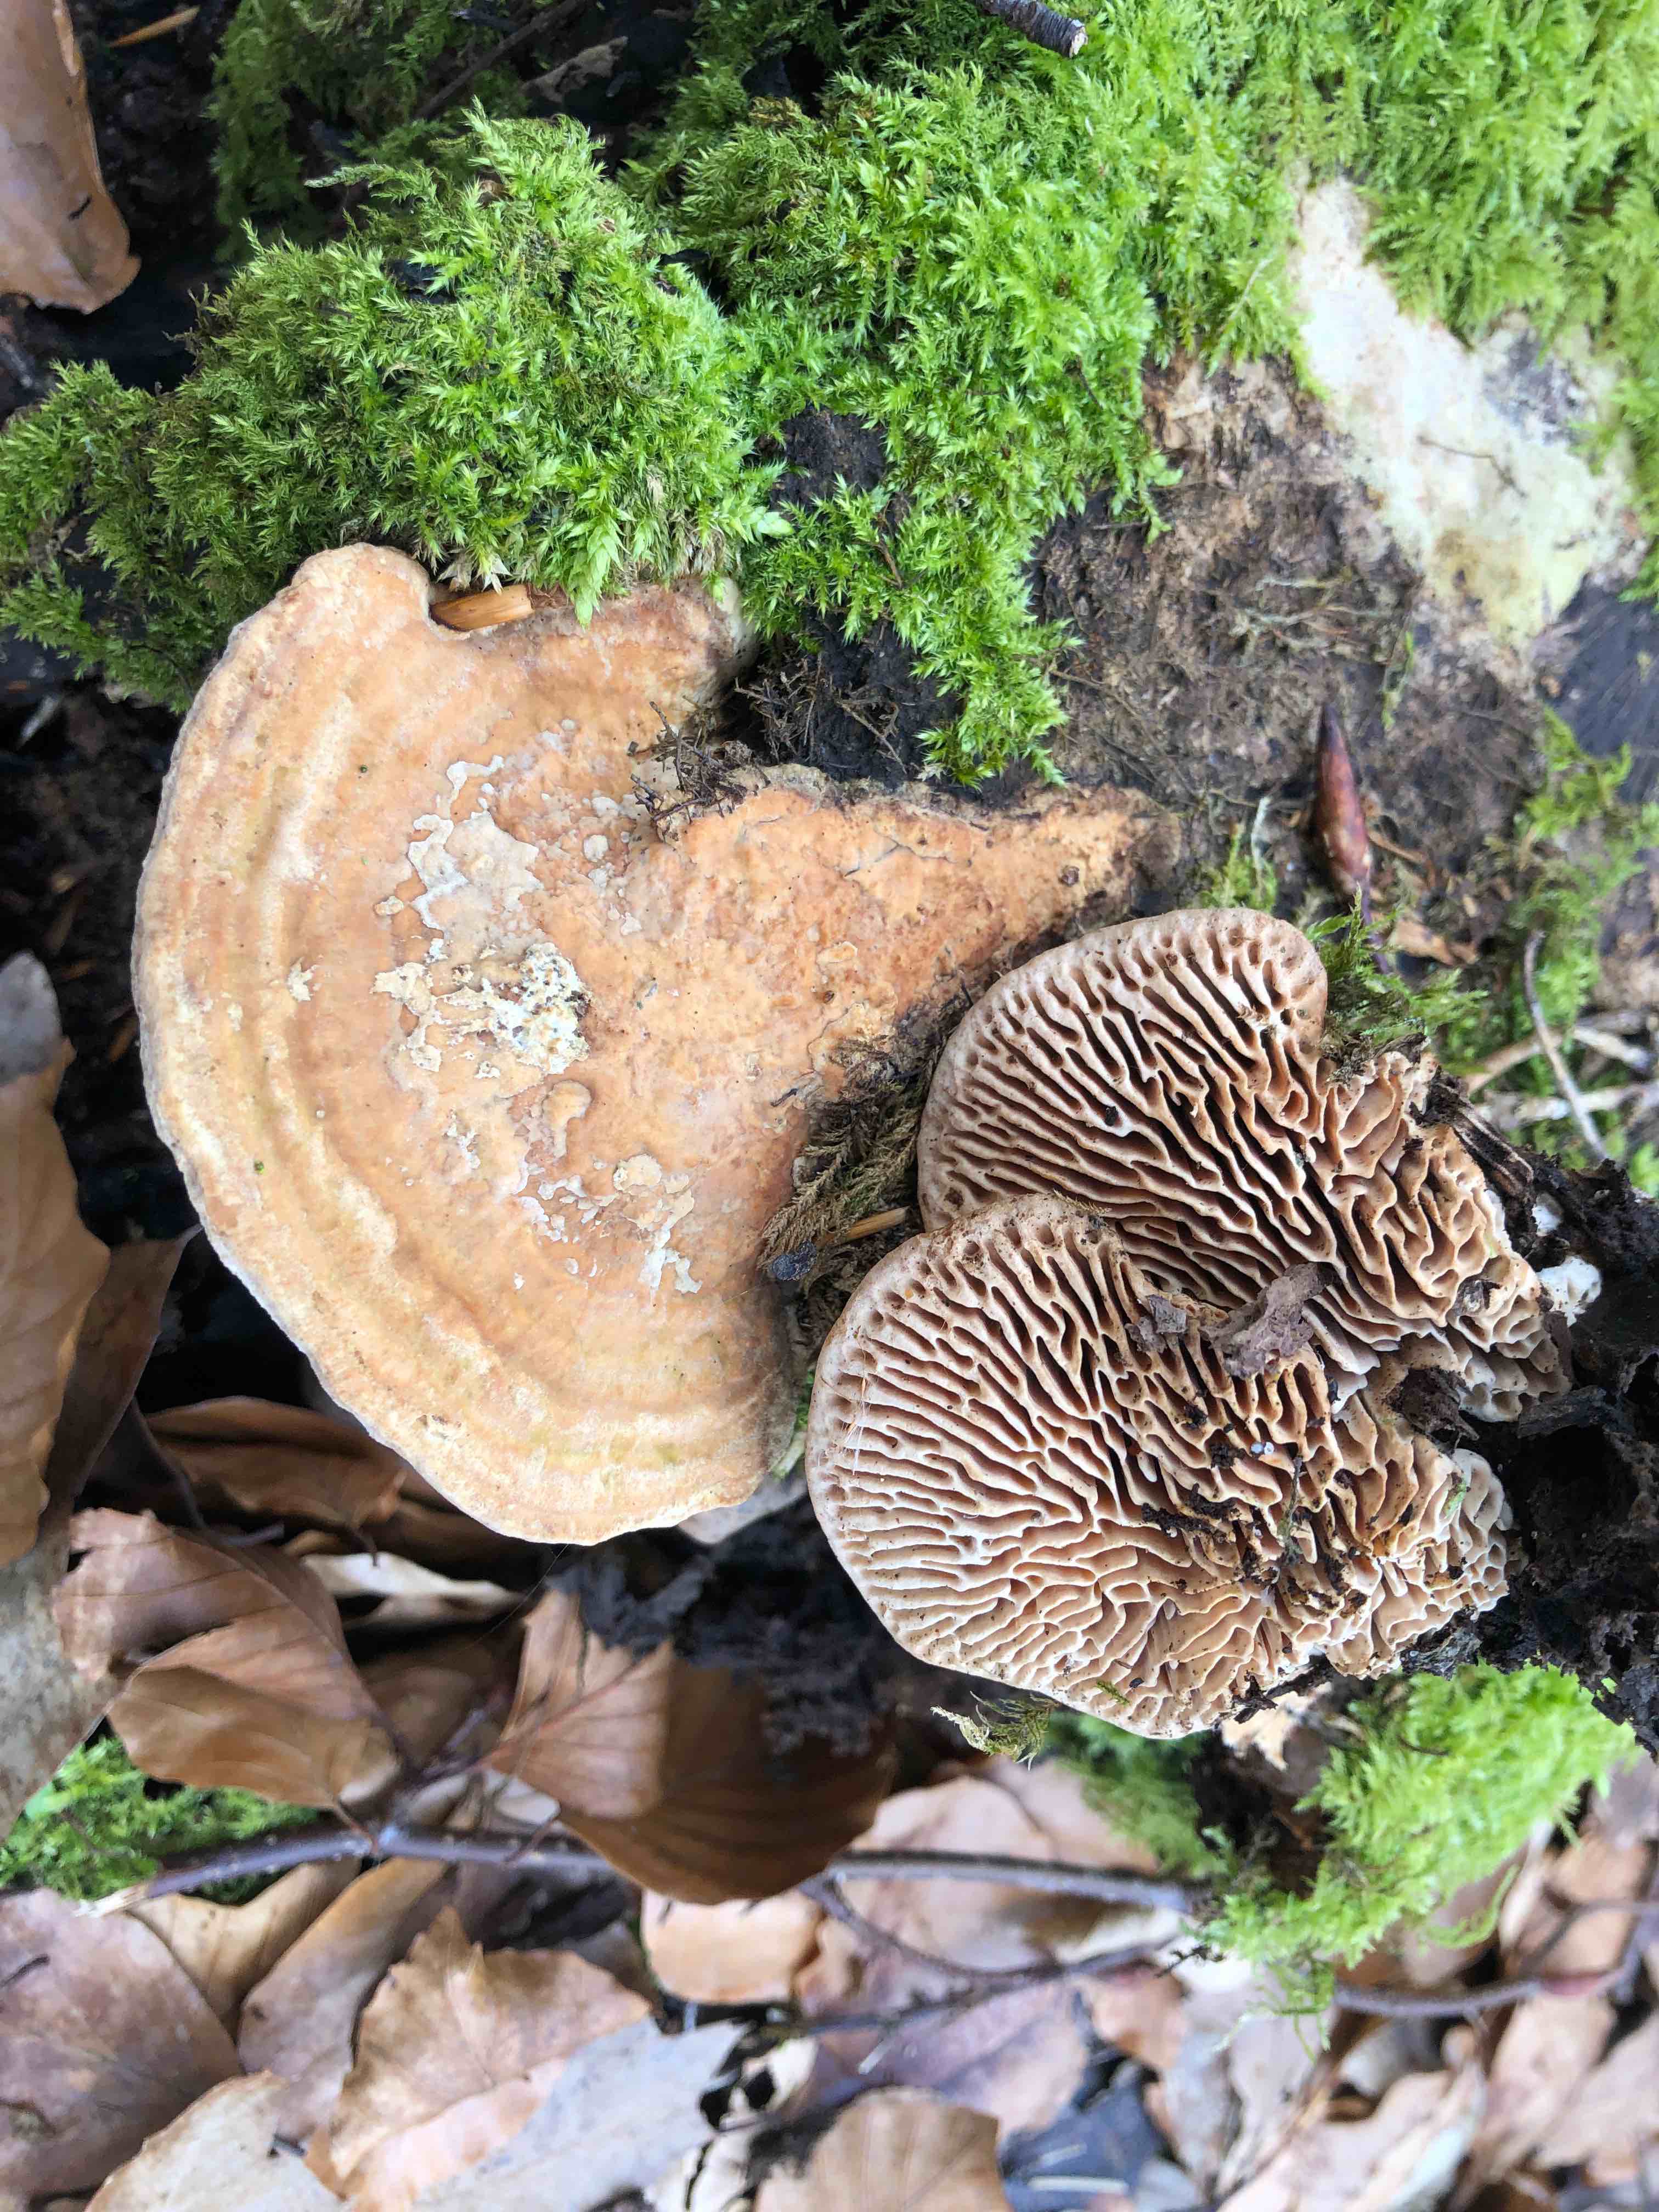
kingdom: Fungi
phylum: Basidiomycota
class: Agaricomycetes
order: Polyporales
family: Fomitopsidaceae
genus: Daedalea
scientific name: Daedalea quercina
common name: ege-labyrintsvamp
